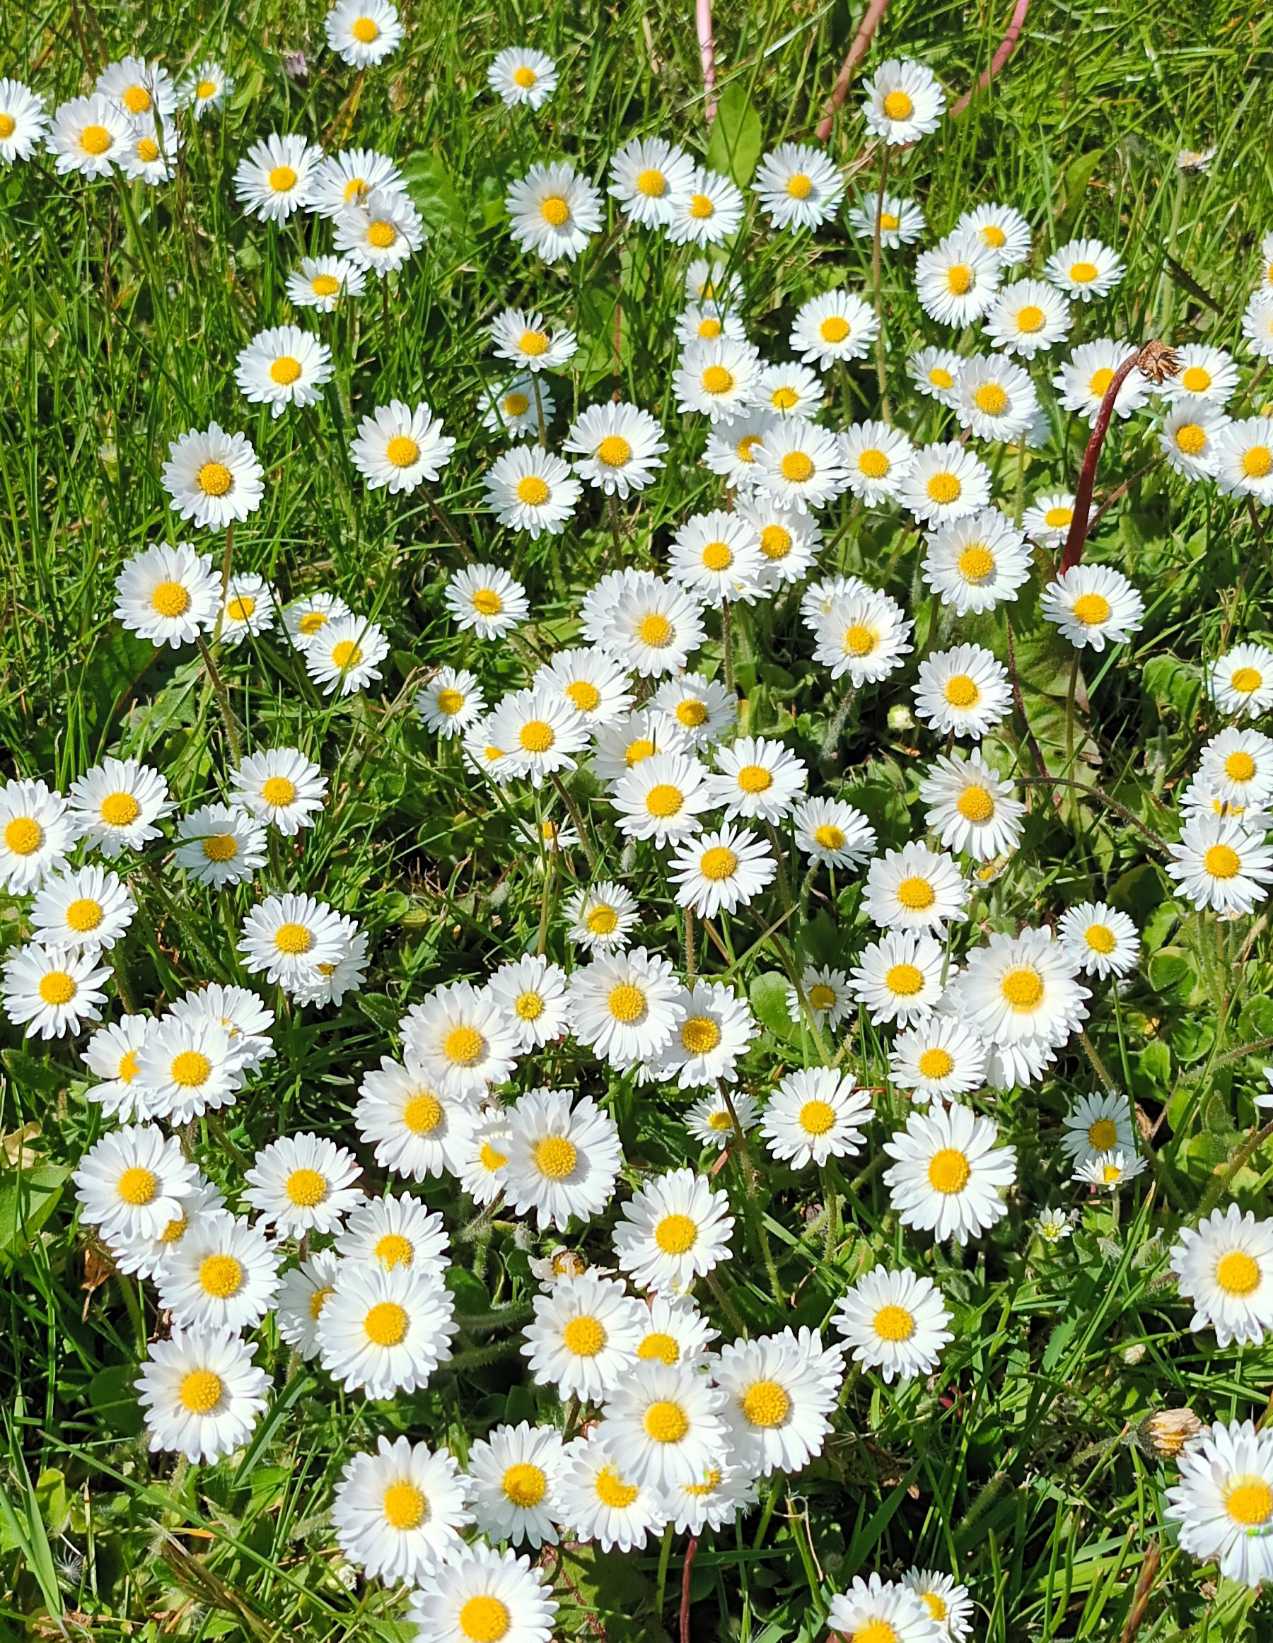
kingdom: Plantae
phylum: Tracheophyta
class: Magnoliopsida
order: Asterales
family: Asteraceae
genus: Bellis
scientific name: Bellis perennis
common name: Tusindfryd
